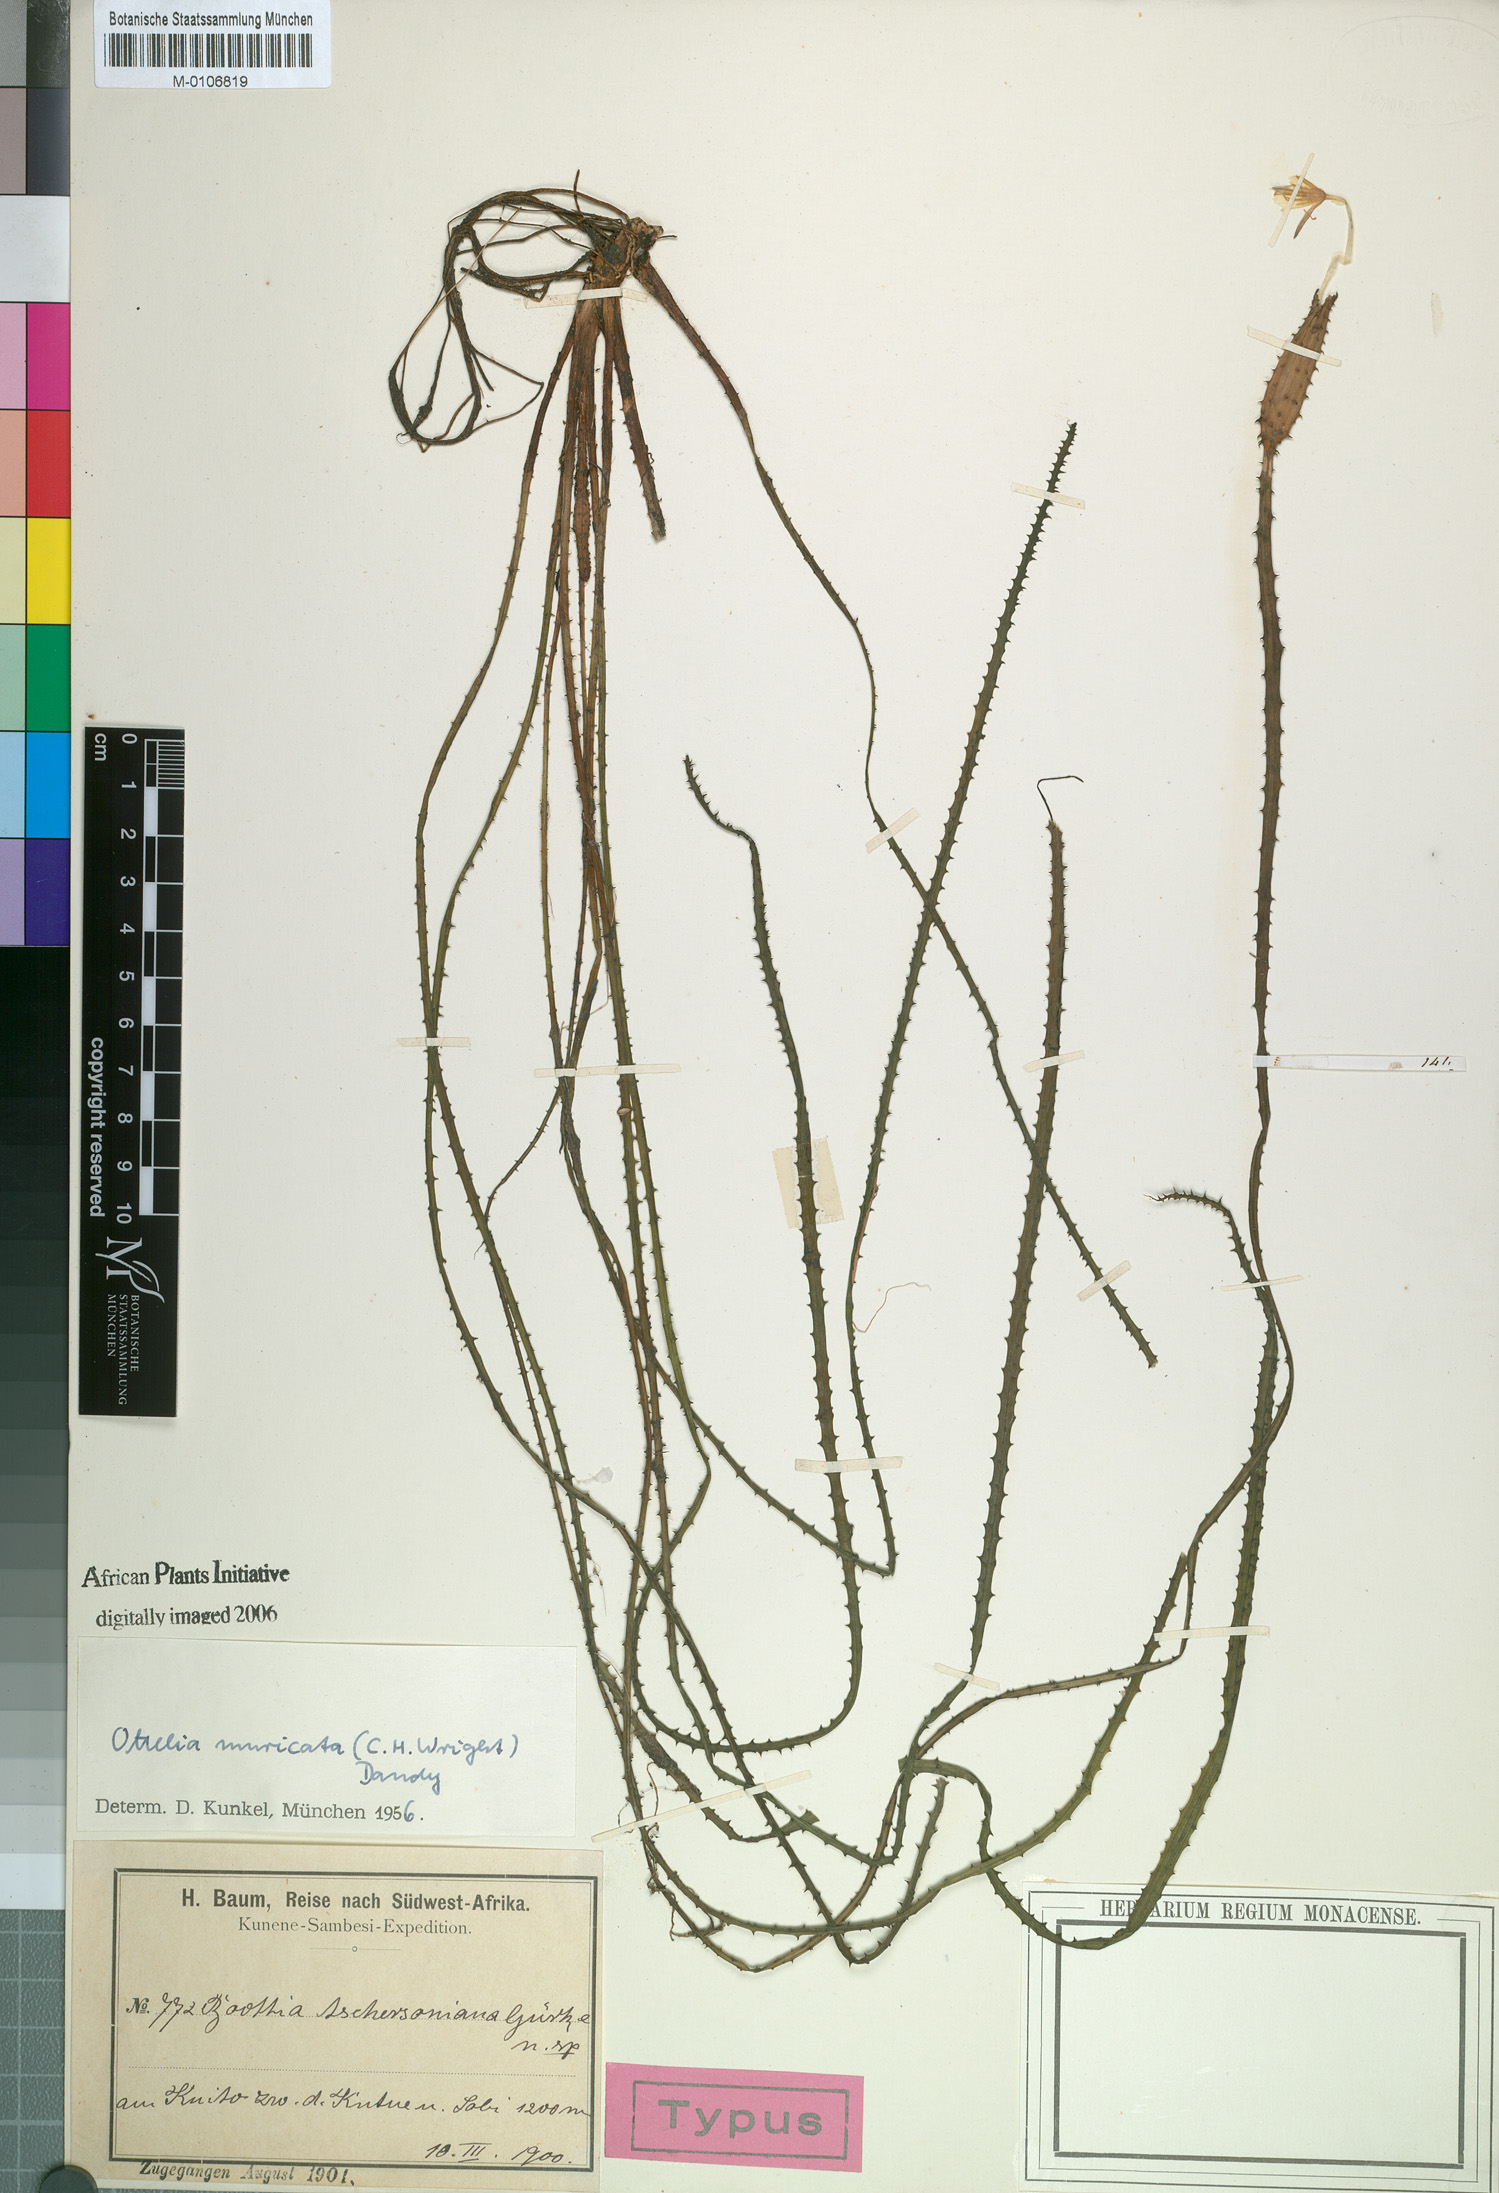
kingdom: Plantae
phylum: Tracheophyta
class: Liliopsida
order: Alismatales
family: Hydrocharitaceae
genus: Ottelia
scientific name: Ottelia muricata
